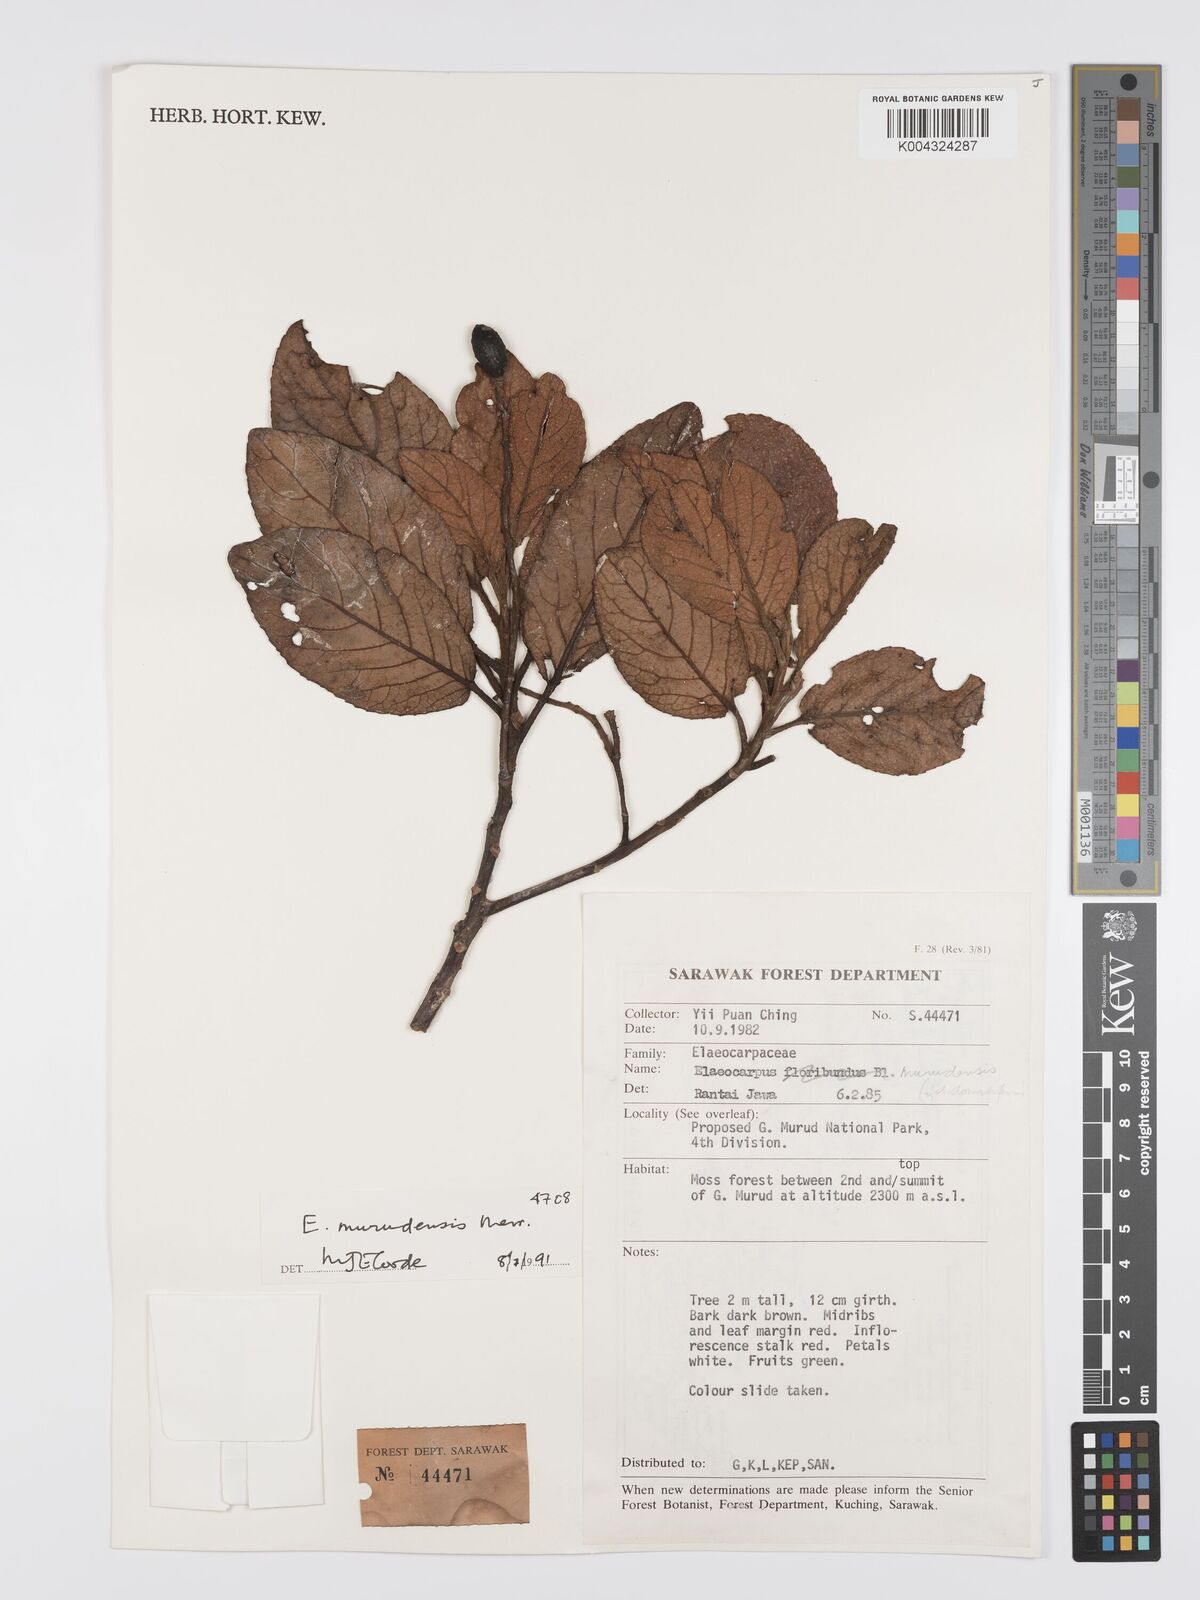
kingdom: Plantae
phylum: Tracheophyta
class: Magnoliopsida
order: Oxalidales
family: Elaeocarpaceae
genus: Elaeocarpus
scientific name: Elaeocarpus murudensis
